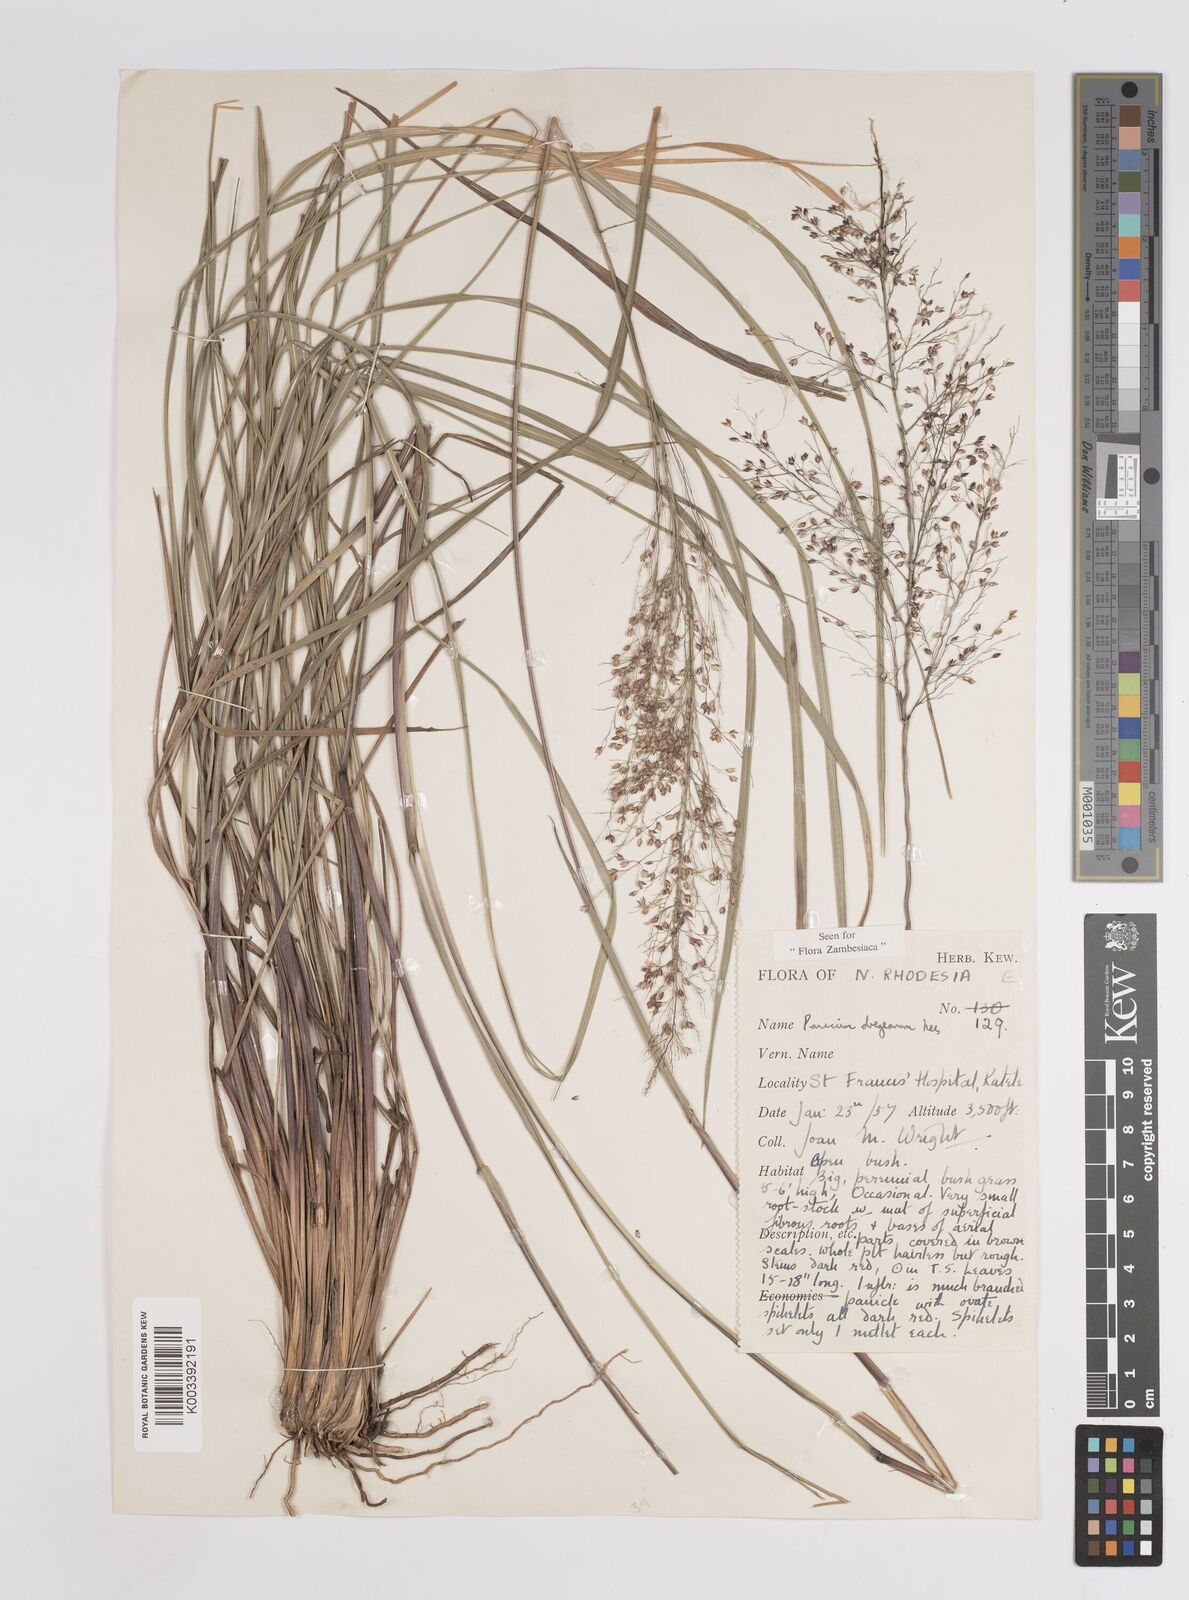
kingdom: Plantae
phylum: Tracheophyta
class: Liliopsida
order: Poales
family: Poaceae
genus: Panicum
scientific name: Panicum dregeanum
